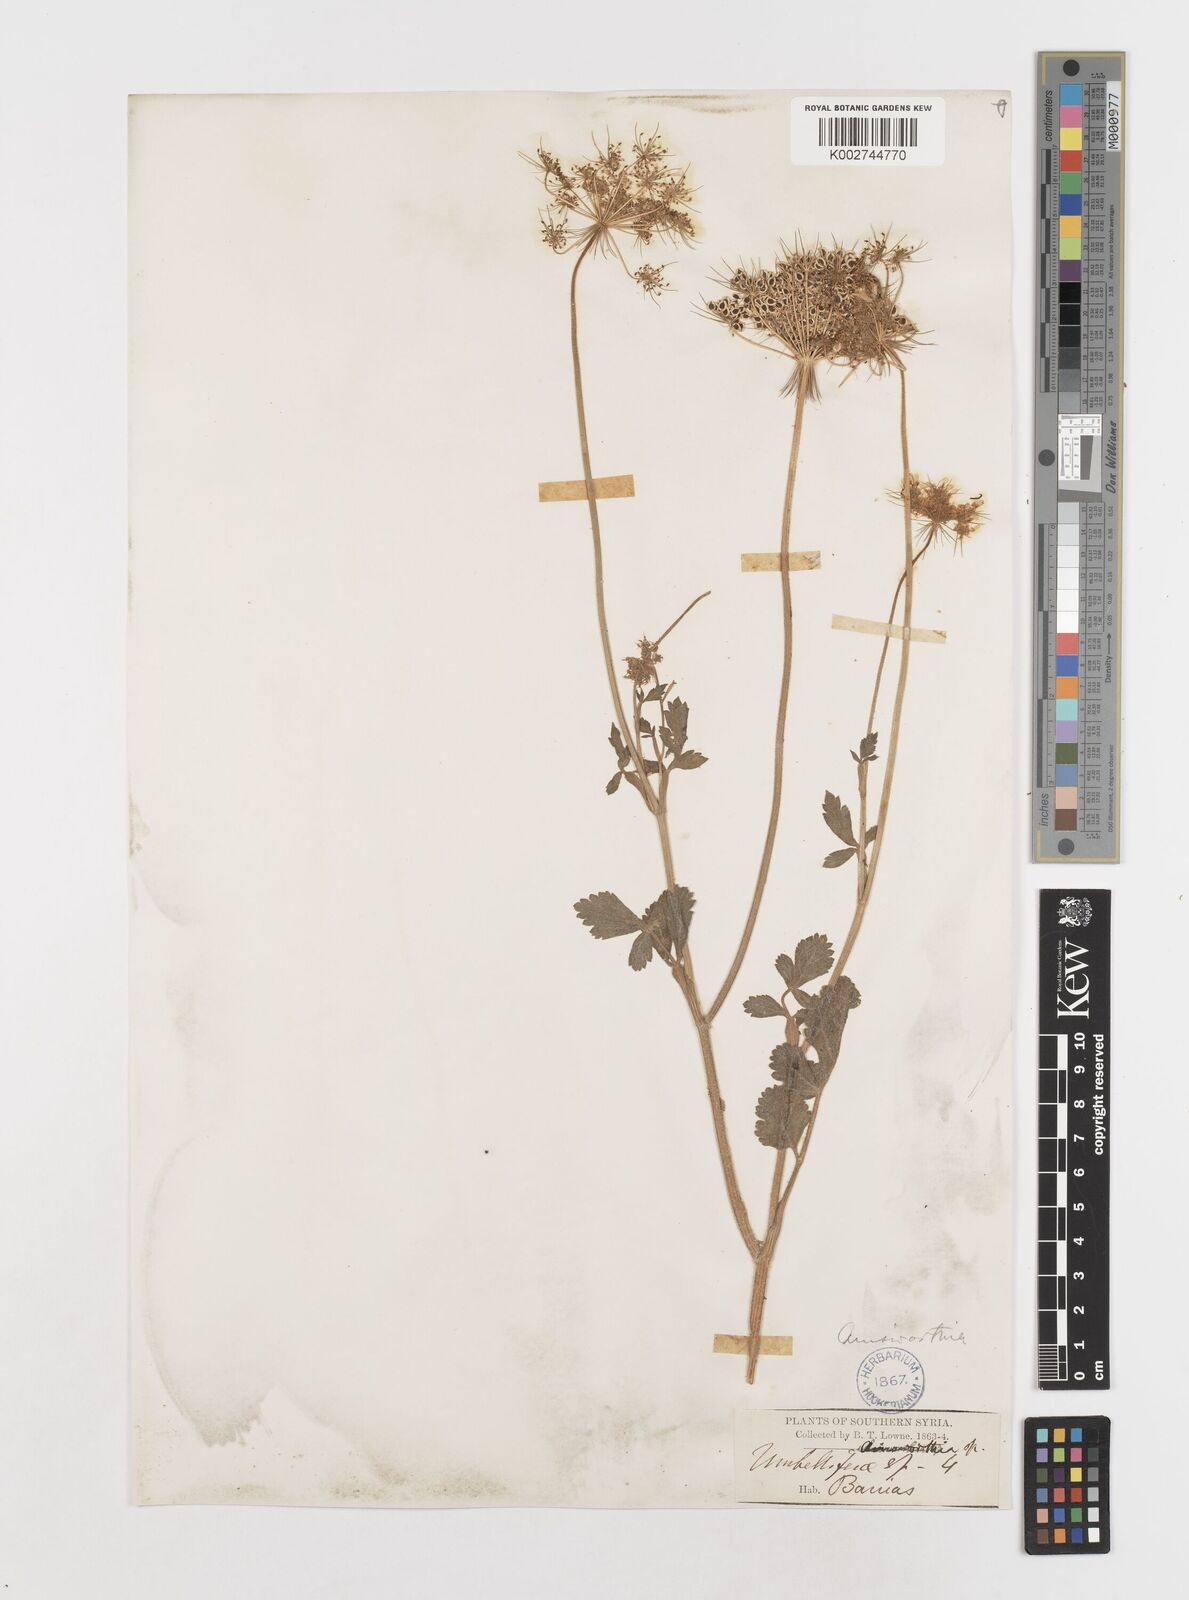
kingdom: Plantae
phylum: Tracheophyta
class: Magnoliopsida
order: Apiales
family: Apiaceae
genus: Ainsworthia
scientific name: Ainsworthia cordata
